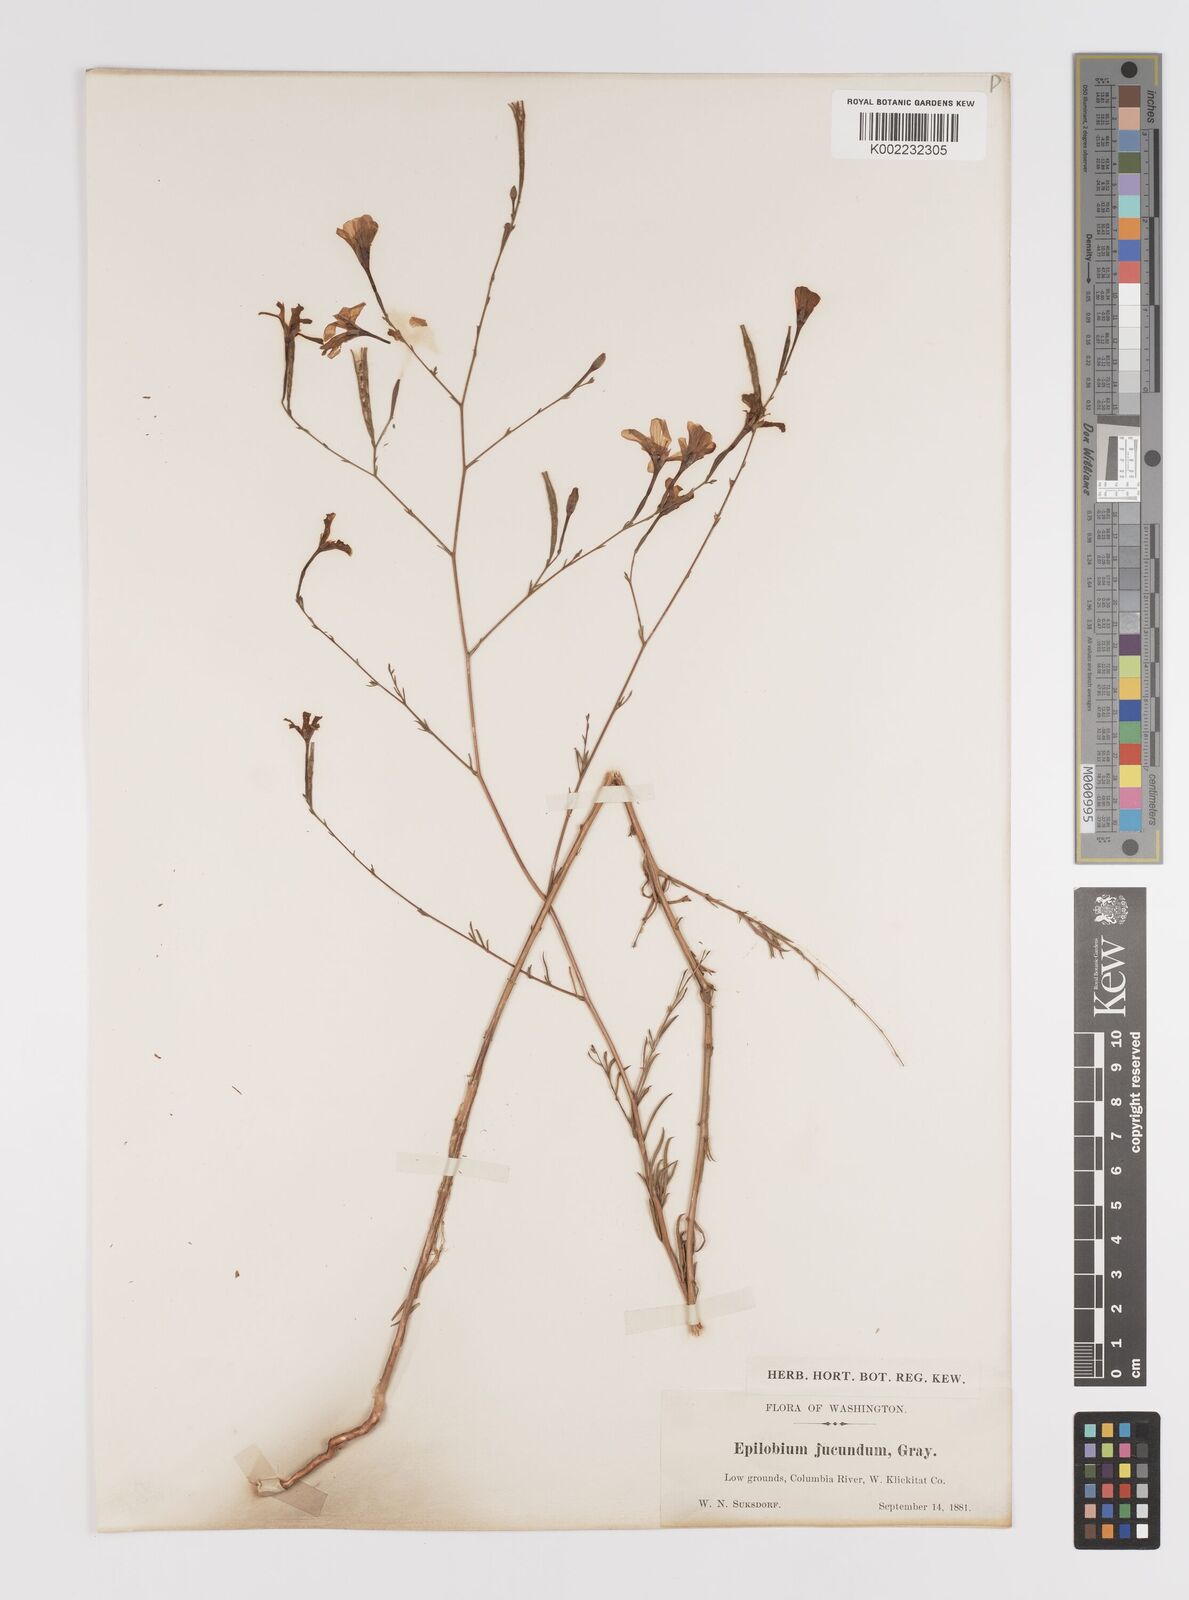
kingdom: Plantae
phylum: Tracheophyta
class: Magnoliopsida
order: Myrtales
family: Onagraceae
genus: Epilobium
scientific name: Epilobium
